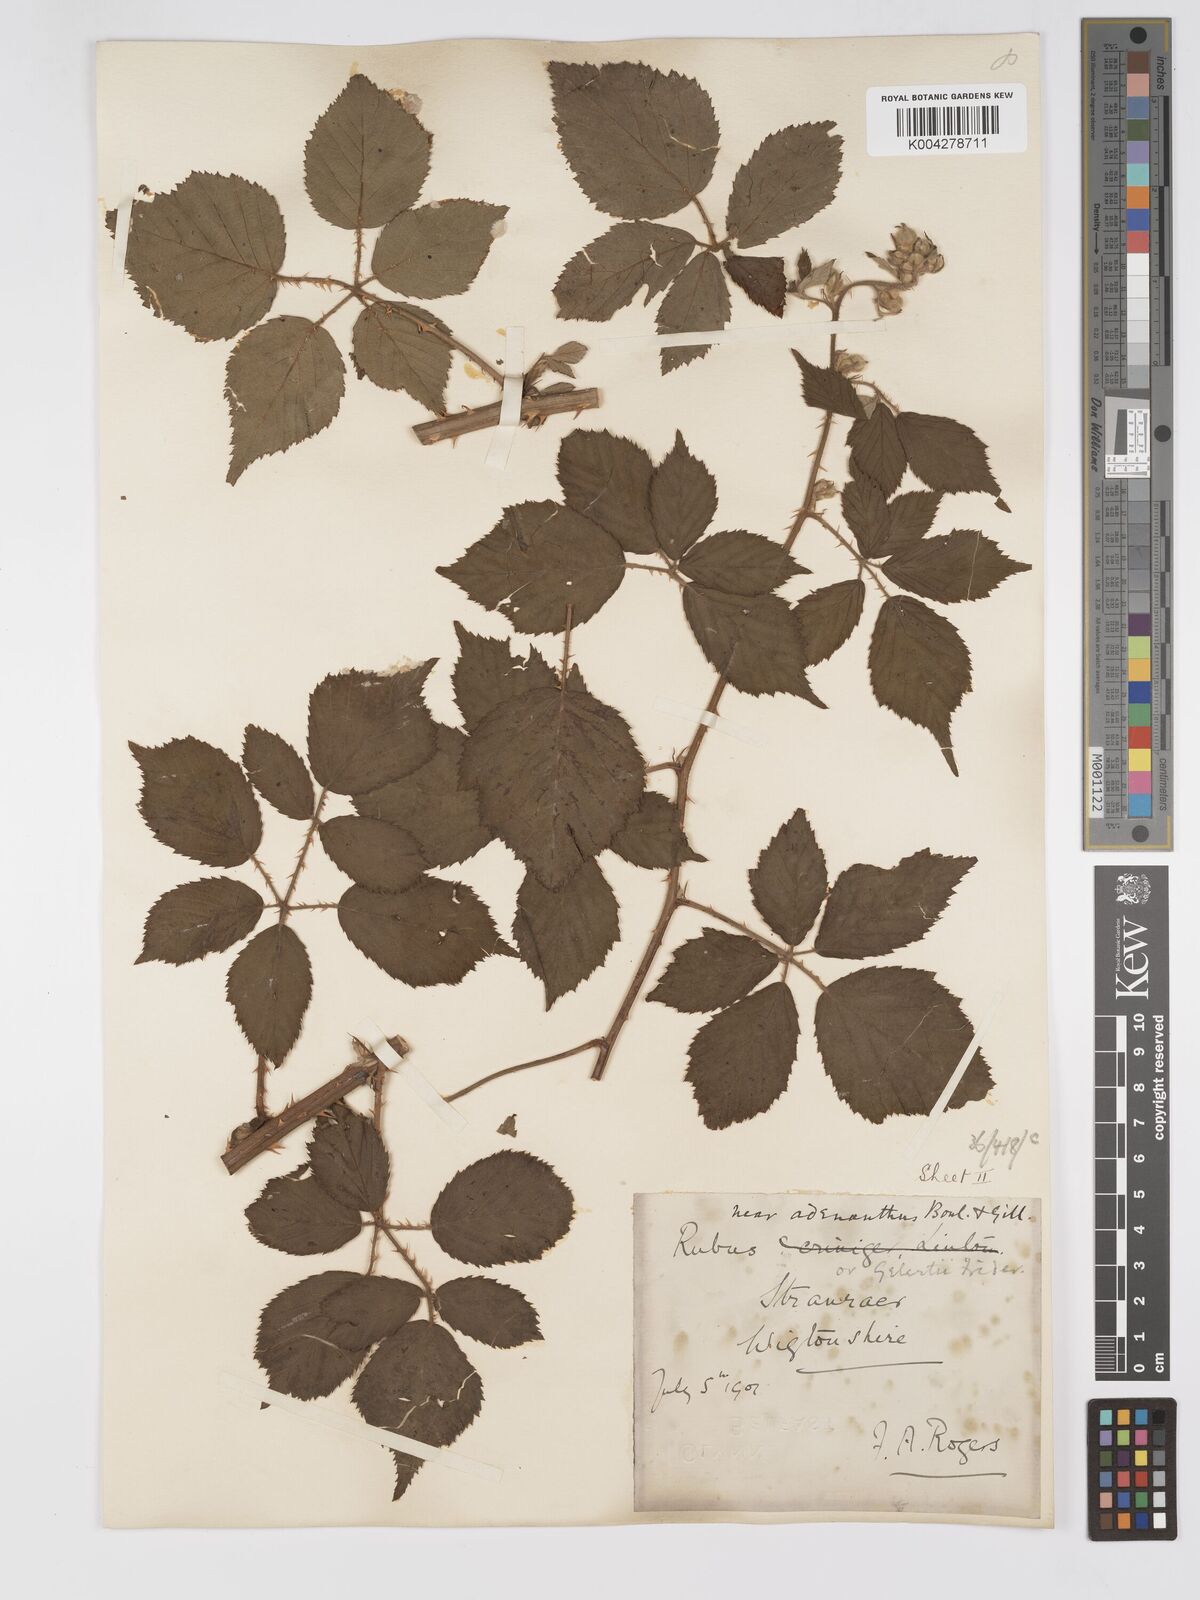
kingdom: Plantae
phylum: Tracheophyta
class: Magnoliopsida
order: Rosales
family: Rosaceae
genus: Rubus
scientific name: Rubus swinhoei
